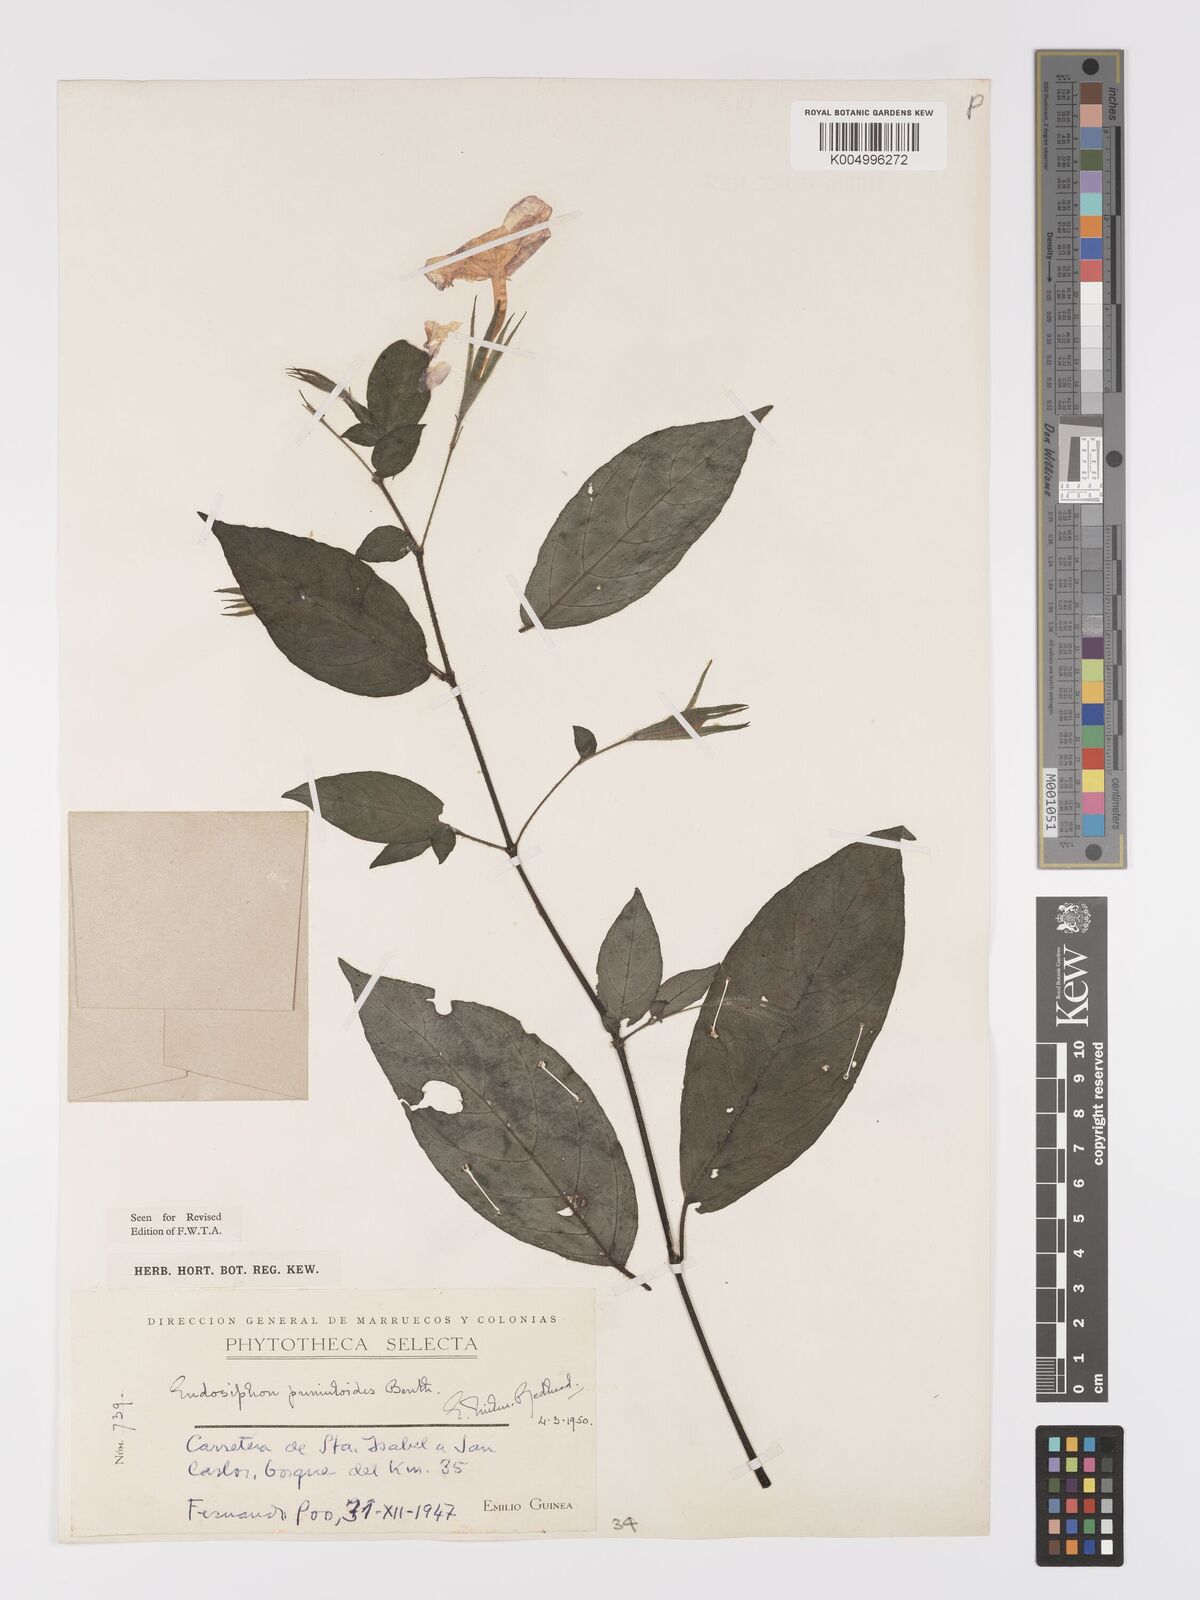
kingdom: Plantae
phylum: Tracheophyta
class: Magnoliopsida
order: Lamiales
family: Acanthaceae
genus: Ruellia
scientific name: Ruellia primuloides
